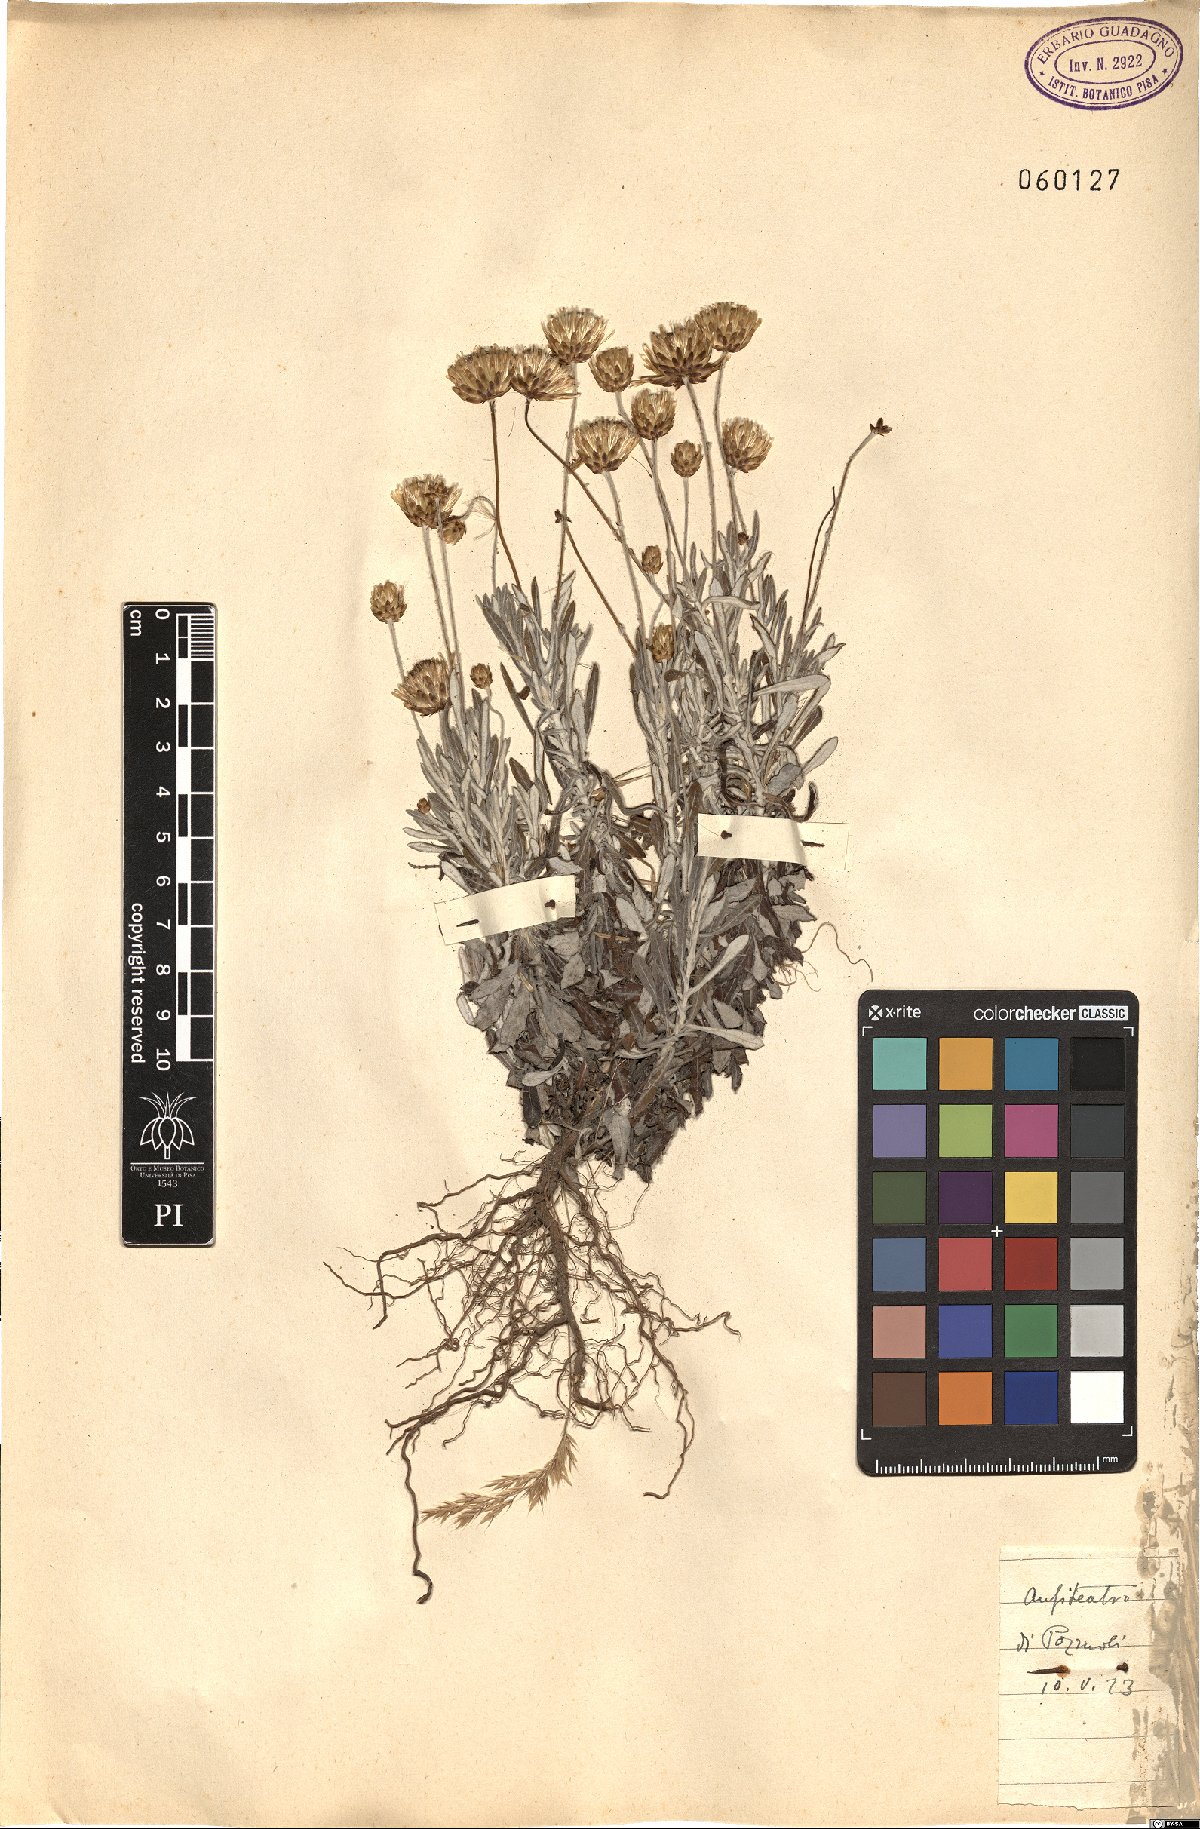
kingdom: Plantae
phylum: Tracheophyta
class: Magnoliopsida
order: Asterales
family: Asteraceae
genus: Phagnalon
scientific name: Phagnalon rupestre
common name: Rock phagnalon
